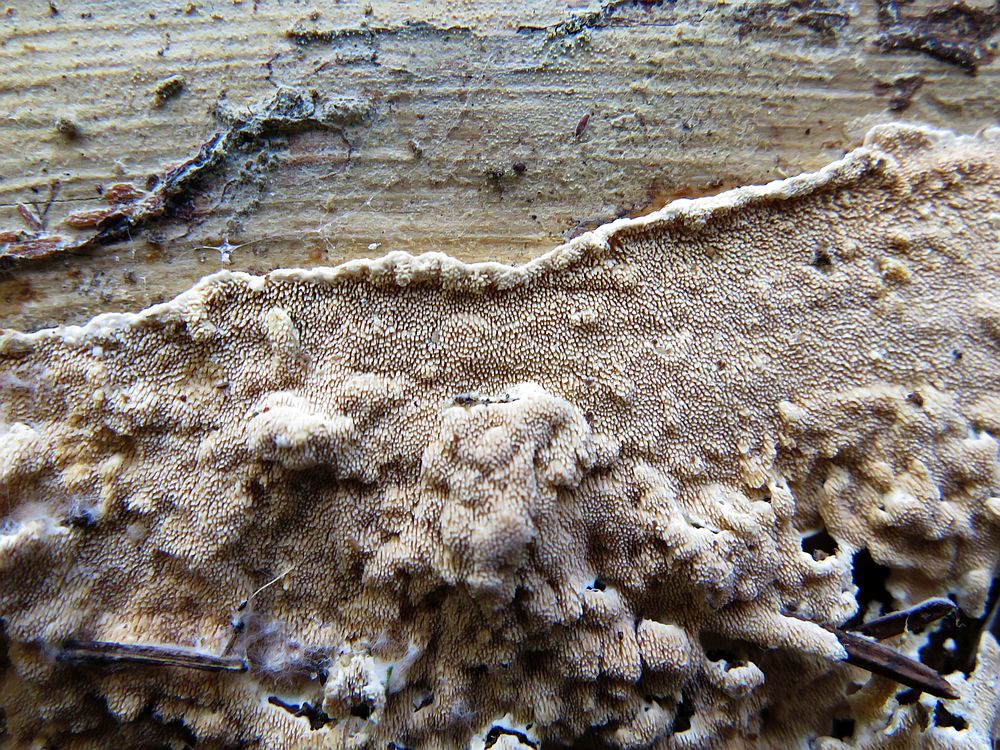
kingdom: Fungi
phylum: Basidiomycota
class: Agaricomycetes
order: Polyporales
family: Steccherinaceae
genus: Steccherinum
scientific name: Steccherinum ochraceum
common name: almindelig skønpig
